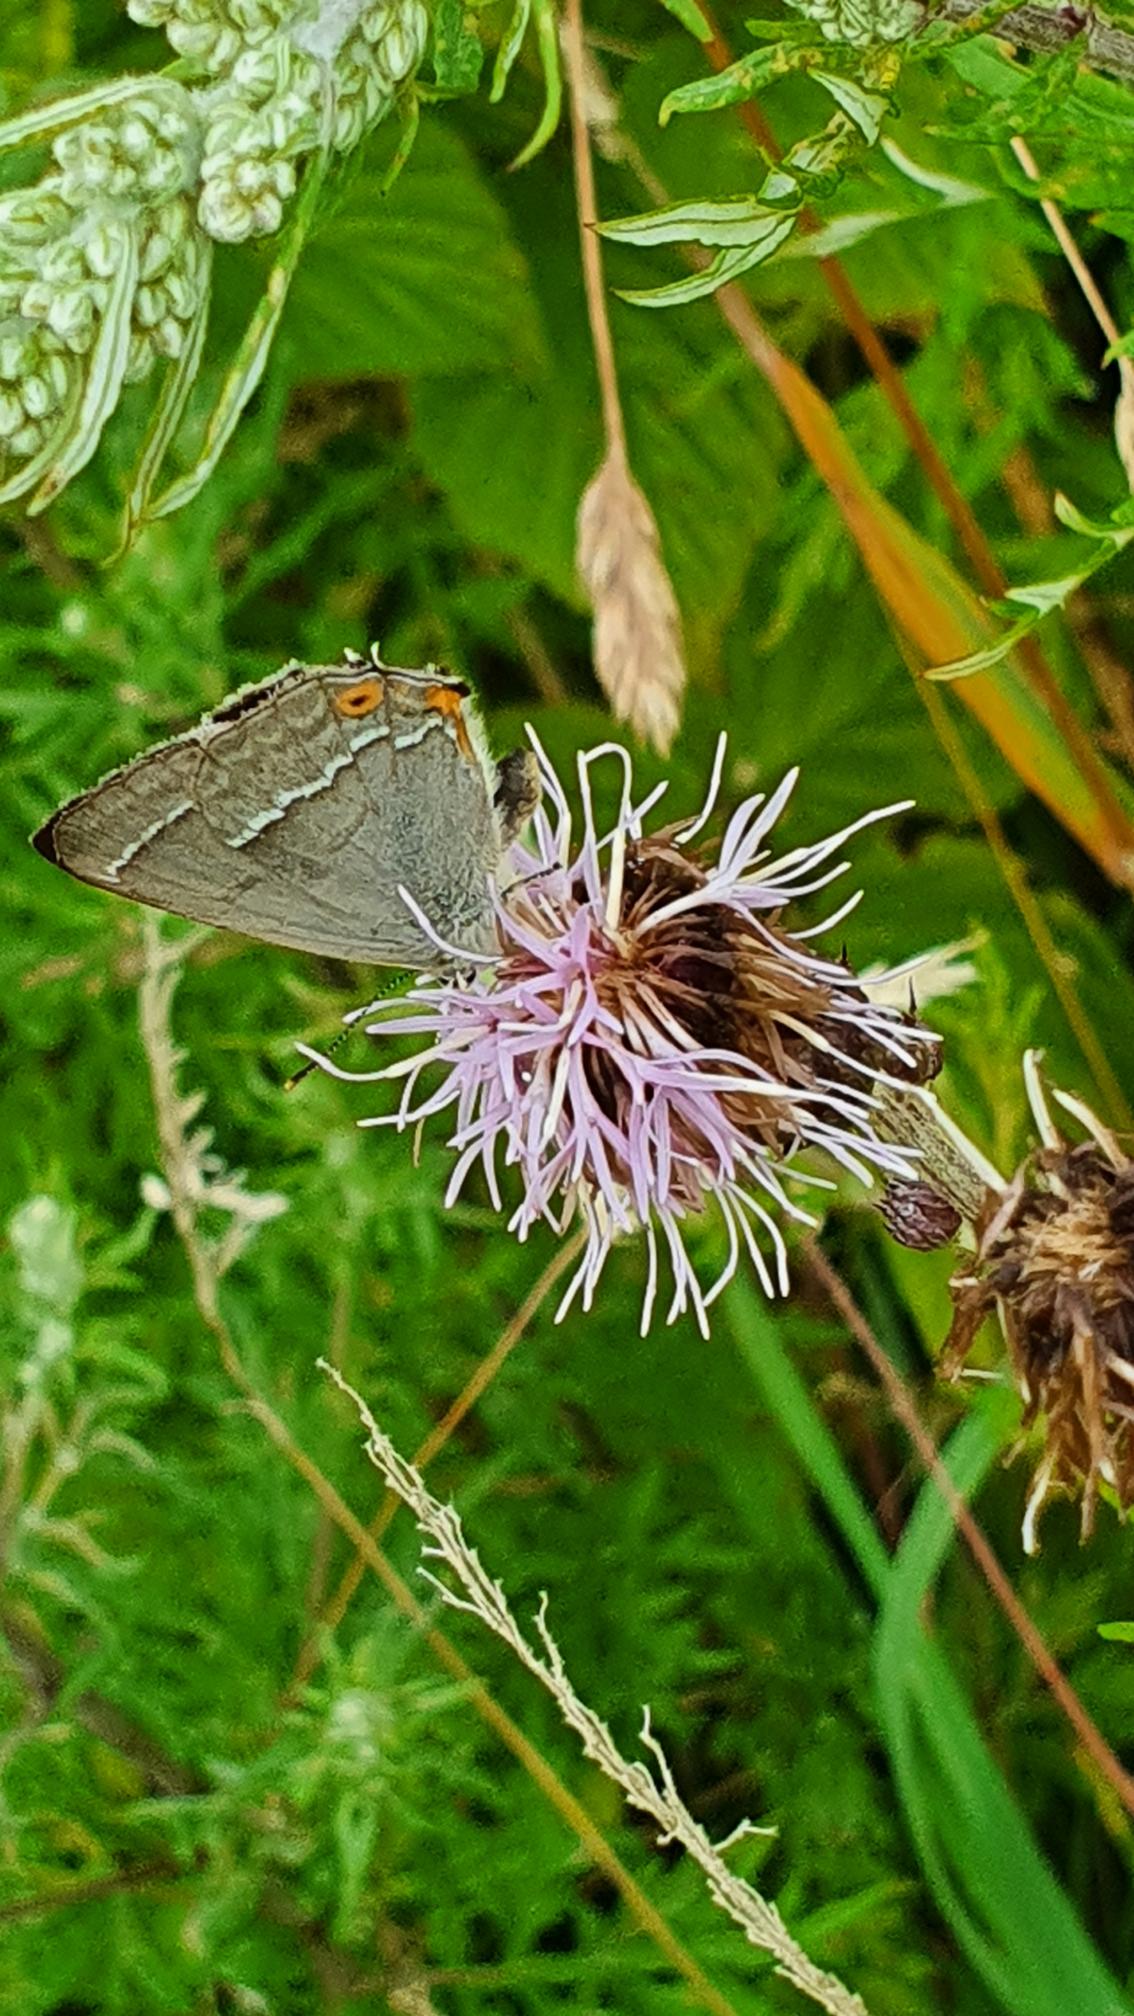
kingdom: Animalia
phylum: Arthropoda
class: Insecta
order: Lepidoptera
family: Lycaenidae
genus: Quercusia
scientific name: Quercusia quercus
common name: Blåhale
